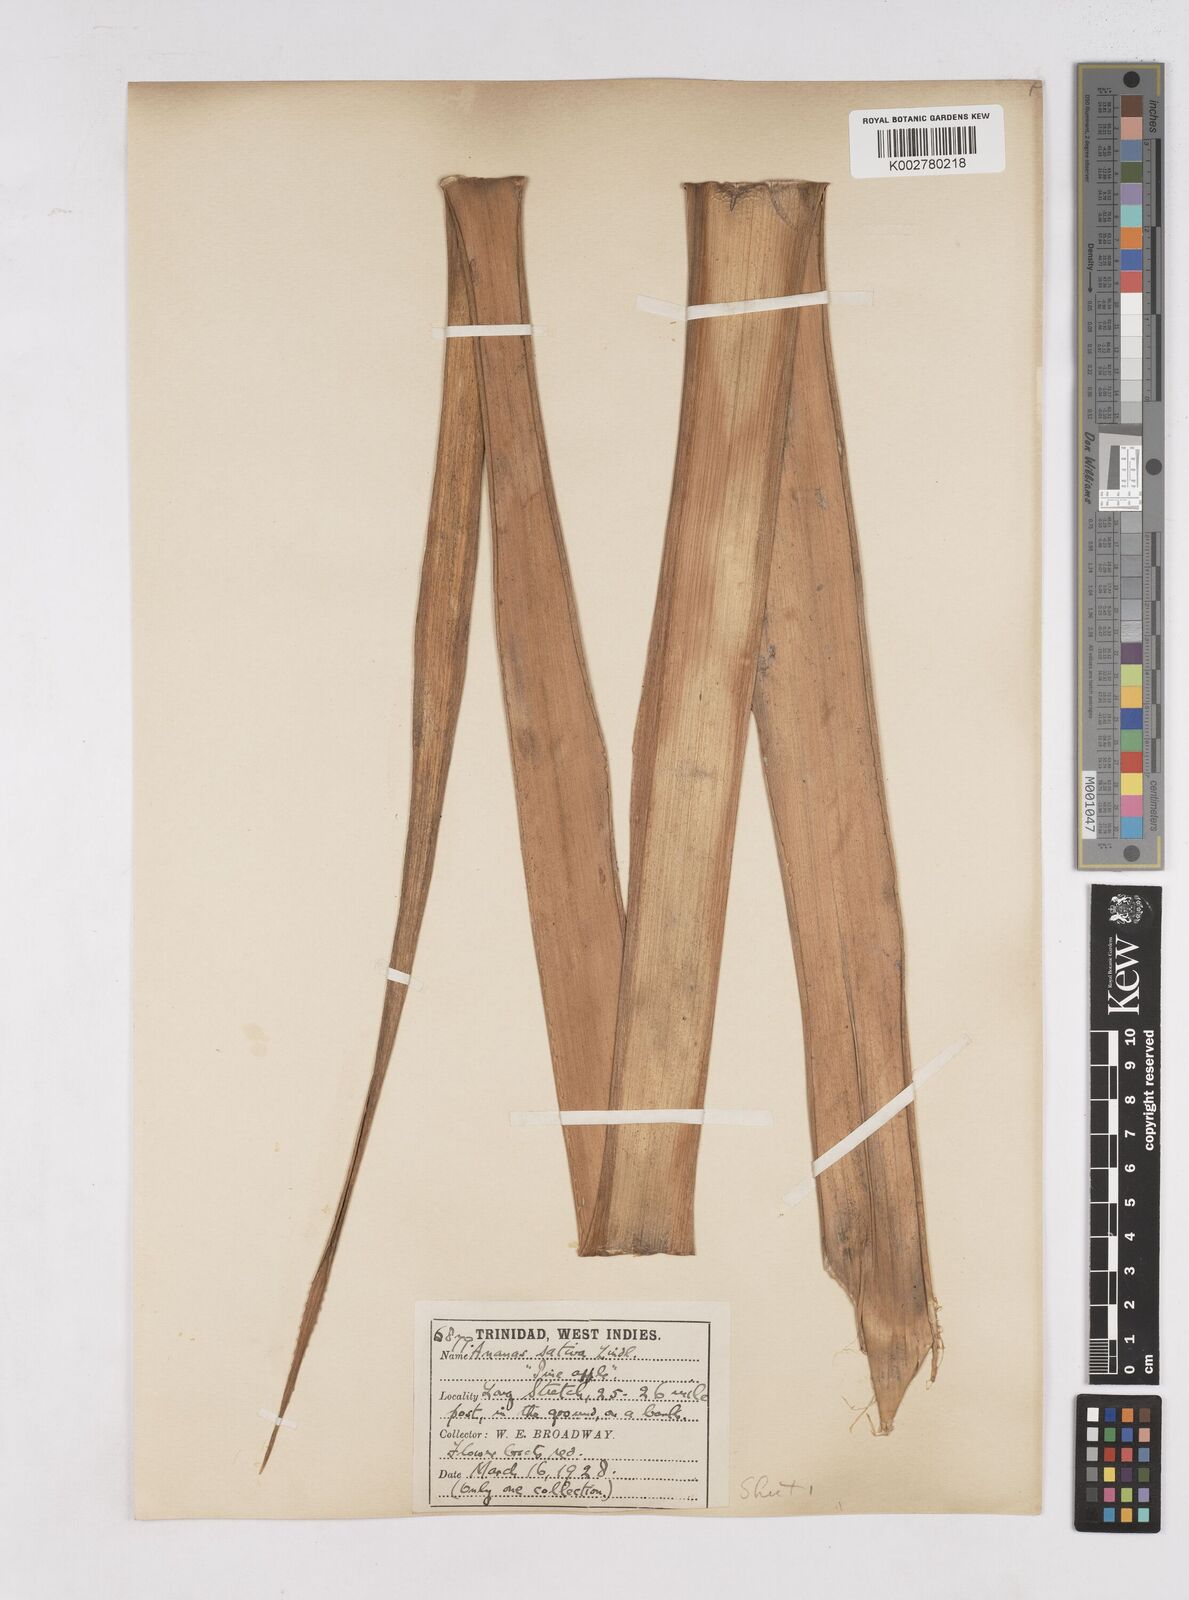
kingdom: Plantae
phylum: Tracheophyta
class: Liliopsida
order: Poales
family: Bromeliaceae
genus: Ananas
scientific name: Ananas comosus
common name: Pineapple
